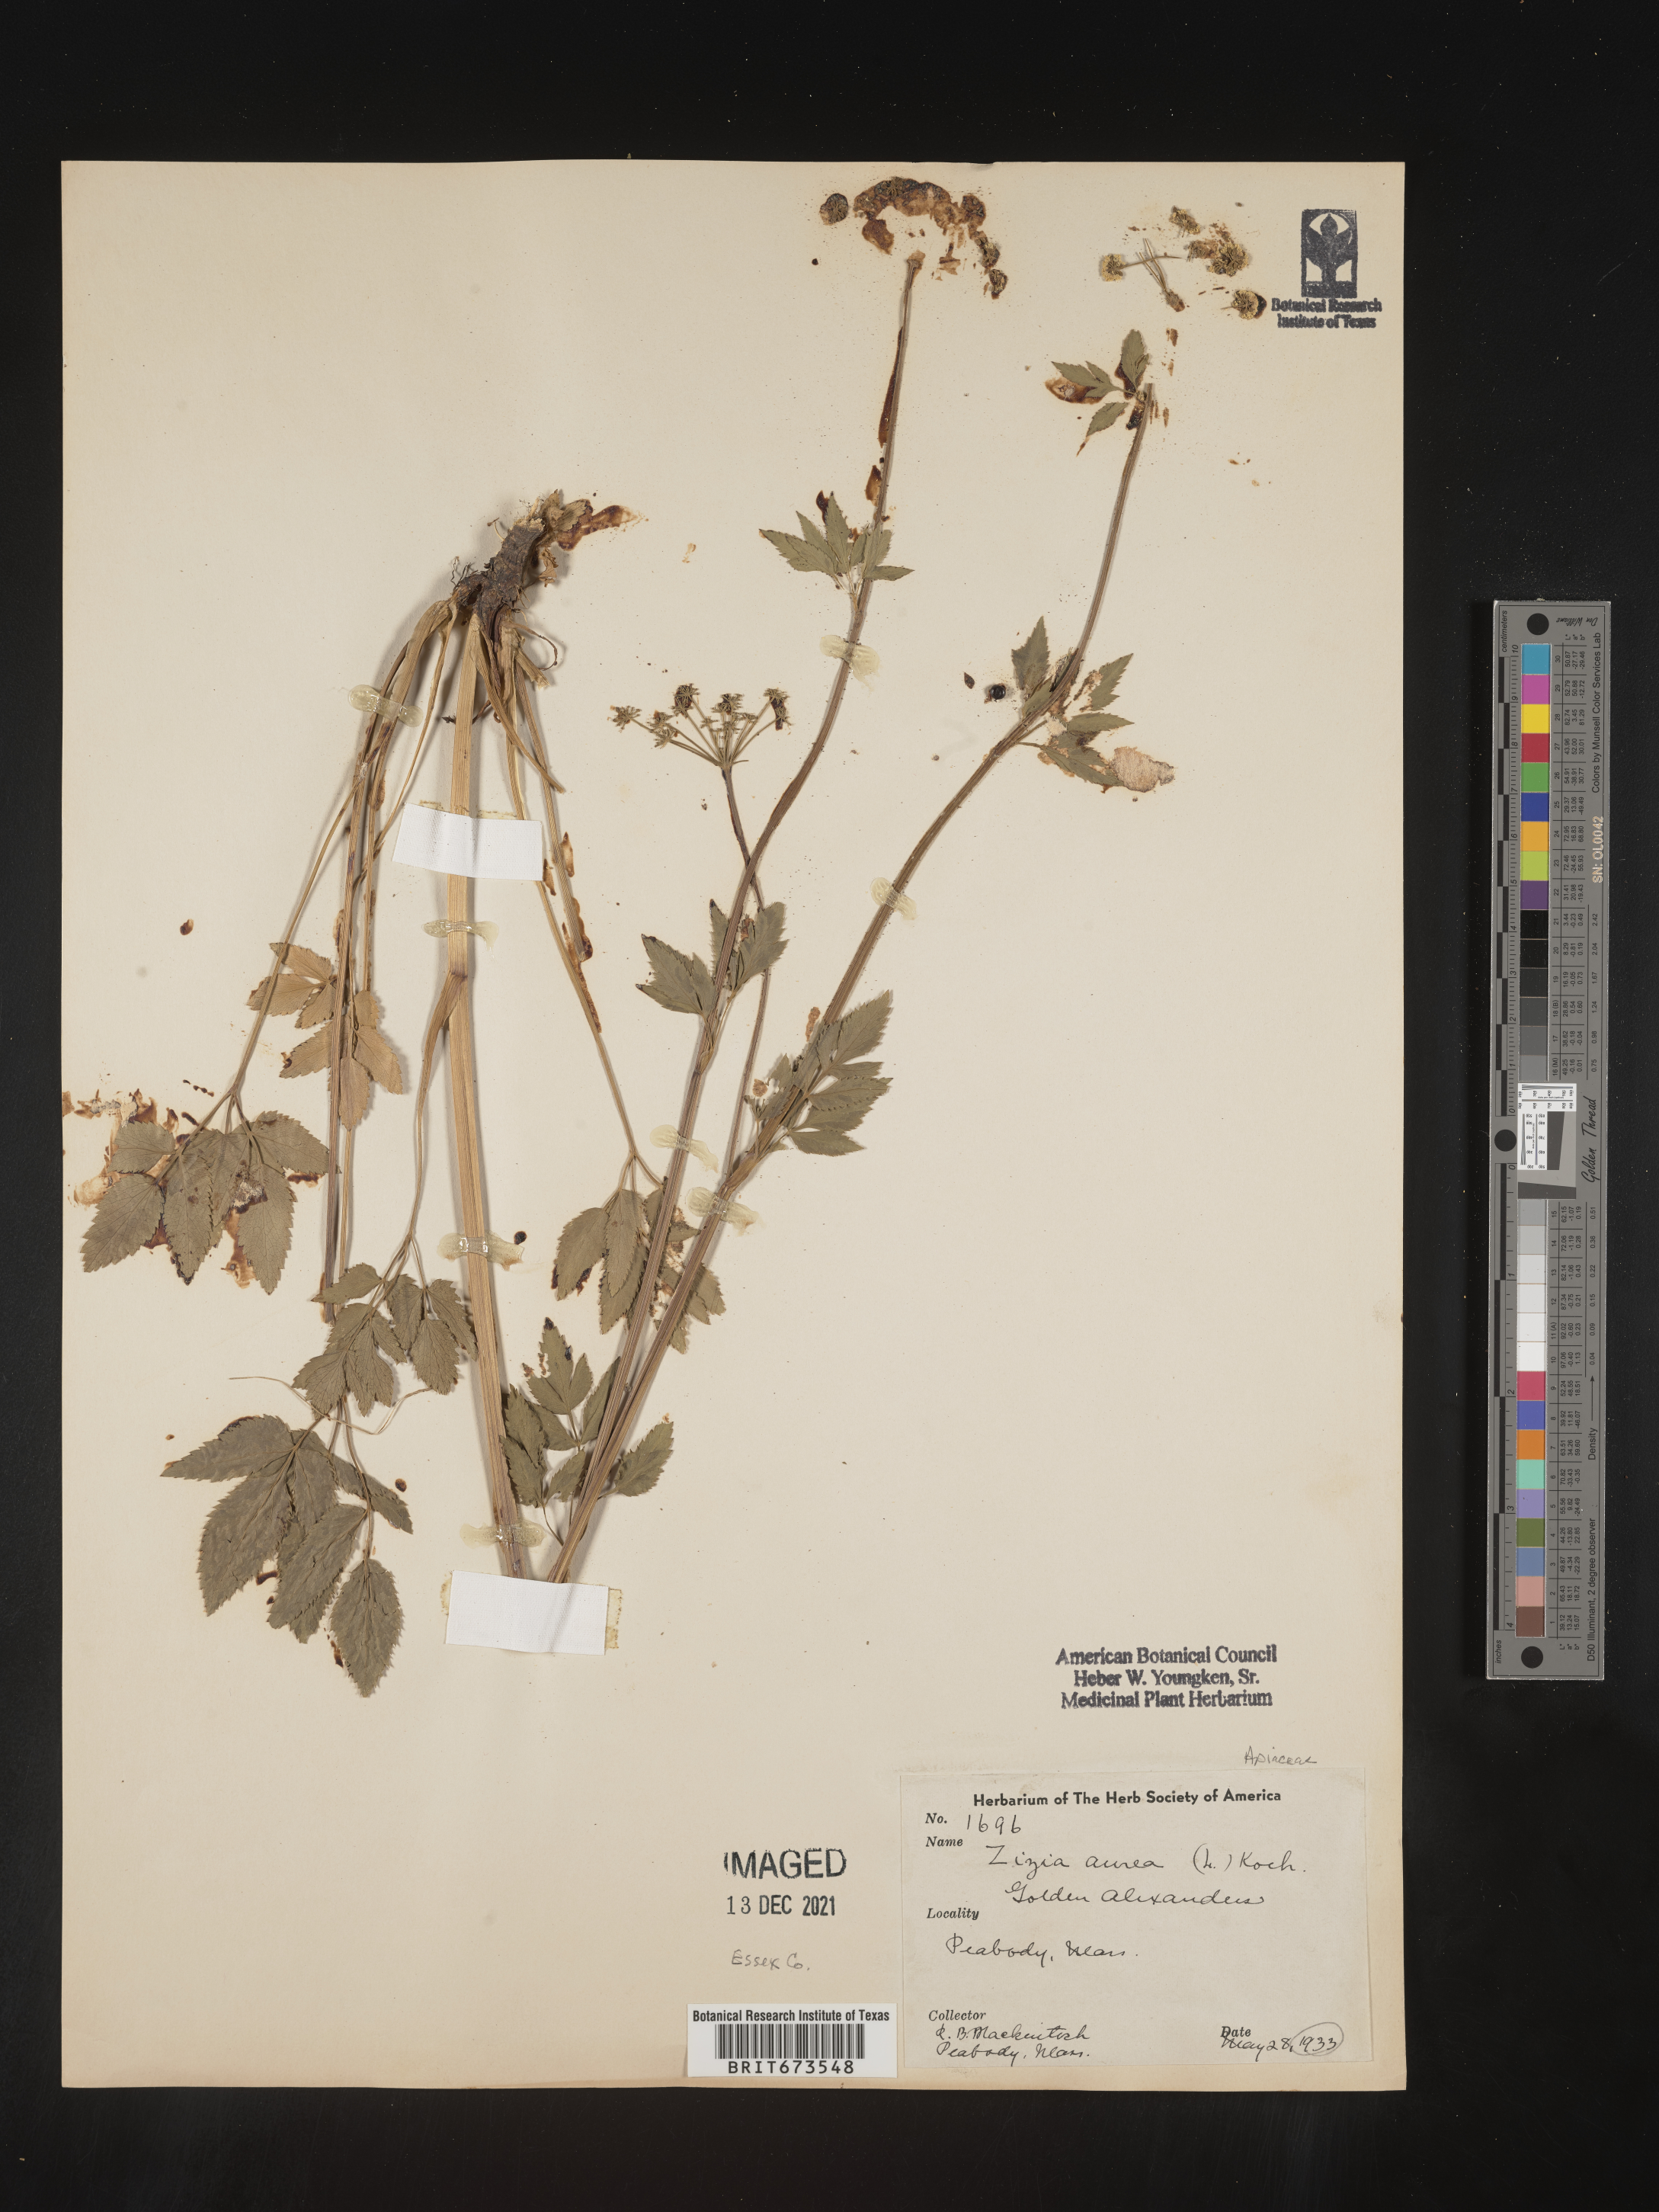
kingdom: Plantae
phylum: Tracheophyta
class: Magnoliopsida
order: Apiales
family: Apiaceae
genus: Zizia
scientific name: Zizia aurea
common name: Golden alexanders
